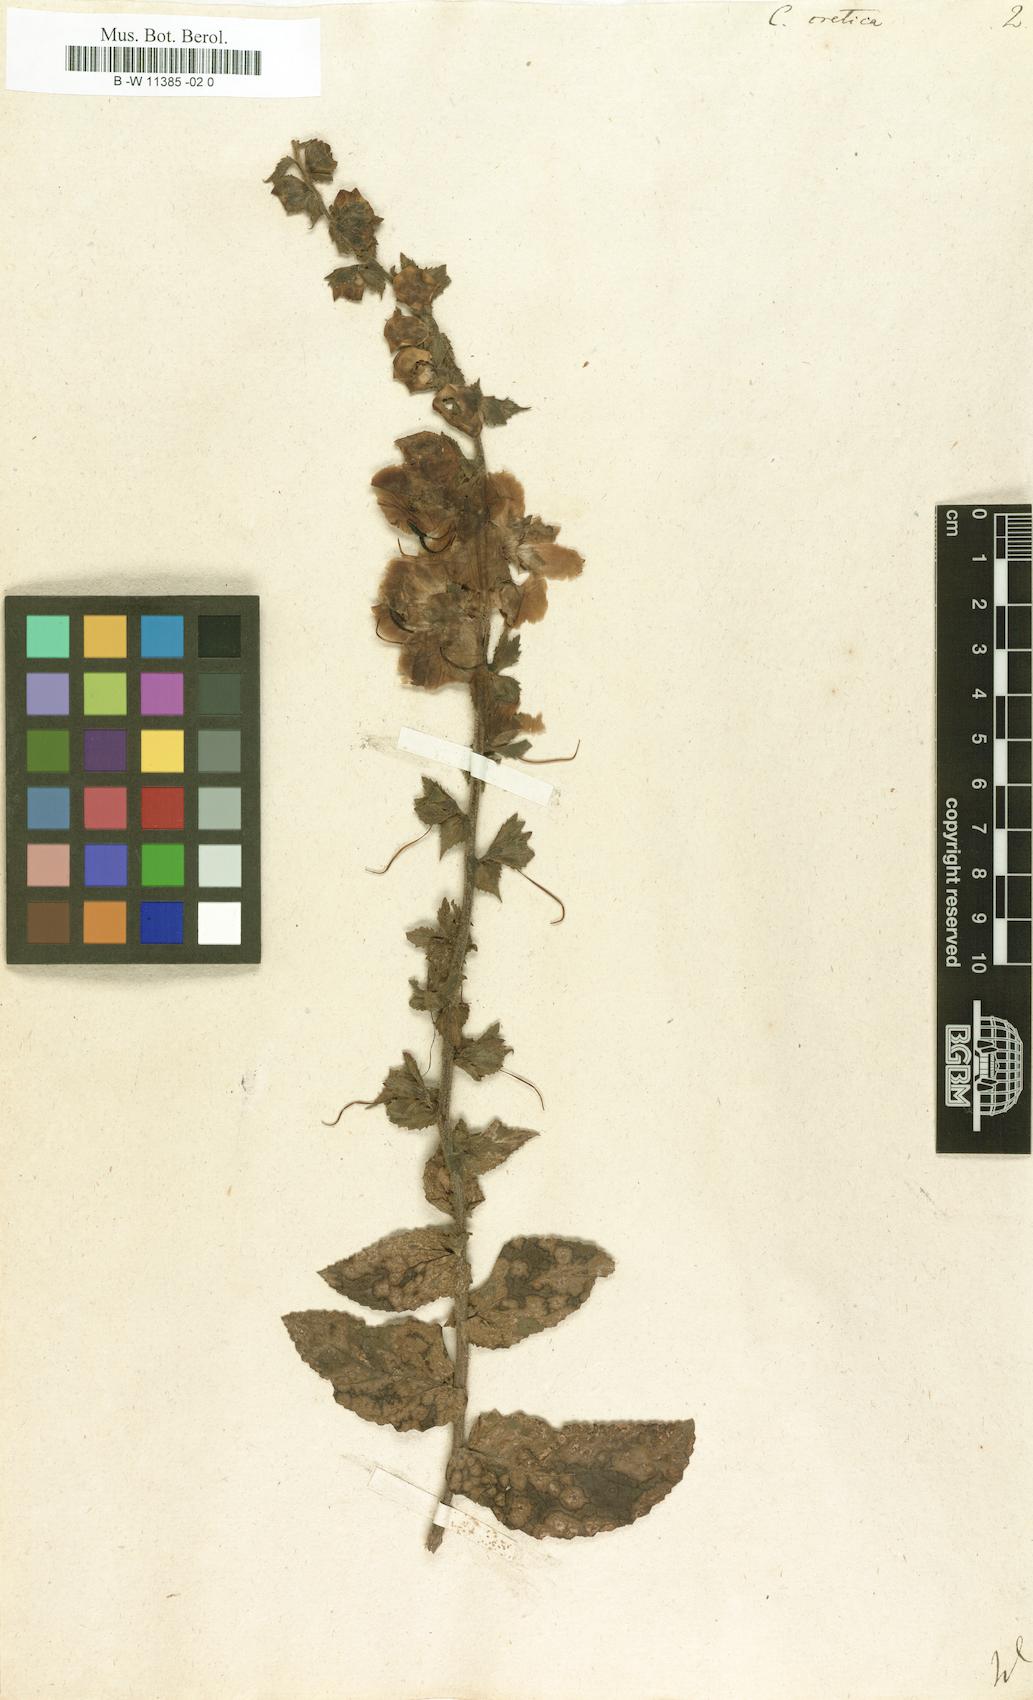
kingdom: Plantae
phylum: Tracheophyta
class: Magnoliopsida
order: Lamiales
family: Scrophulariaceae
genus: Verbascum
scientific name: Verbascum creticum
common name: Cretan mullein
